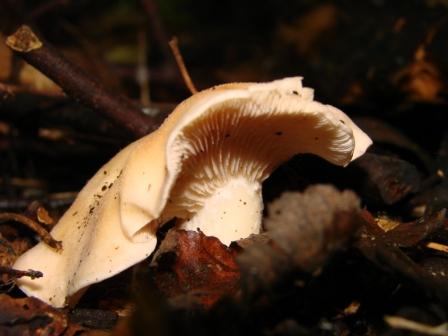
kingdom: Fungi
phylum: Basidiomycota
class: Agaricomycetes
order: Agaricales
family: Entolomataceae
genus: Clitopilus
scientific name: Clitopilus geminus
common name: kødfarvet troldhat
